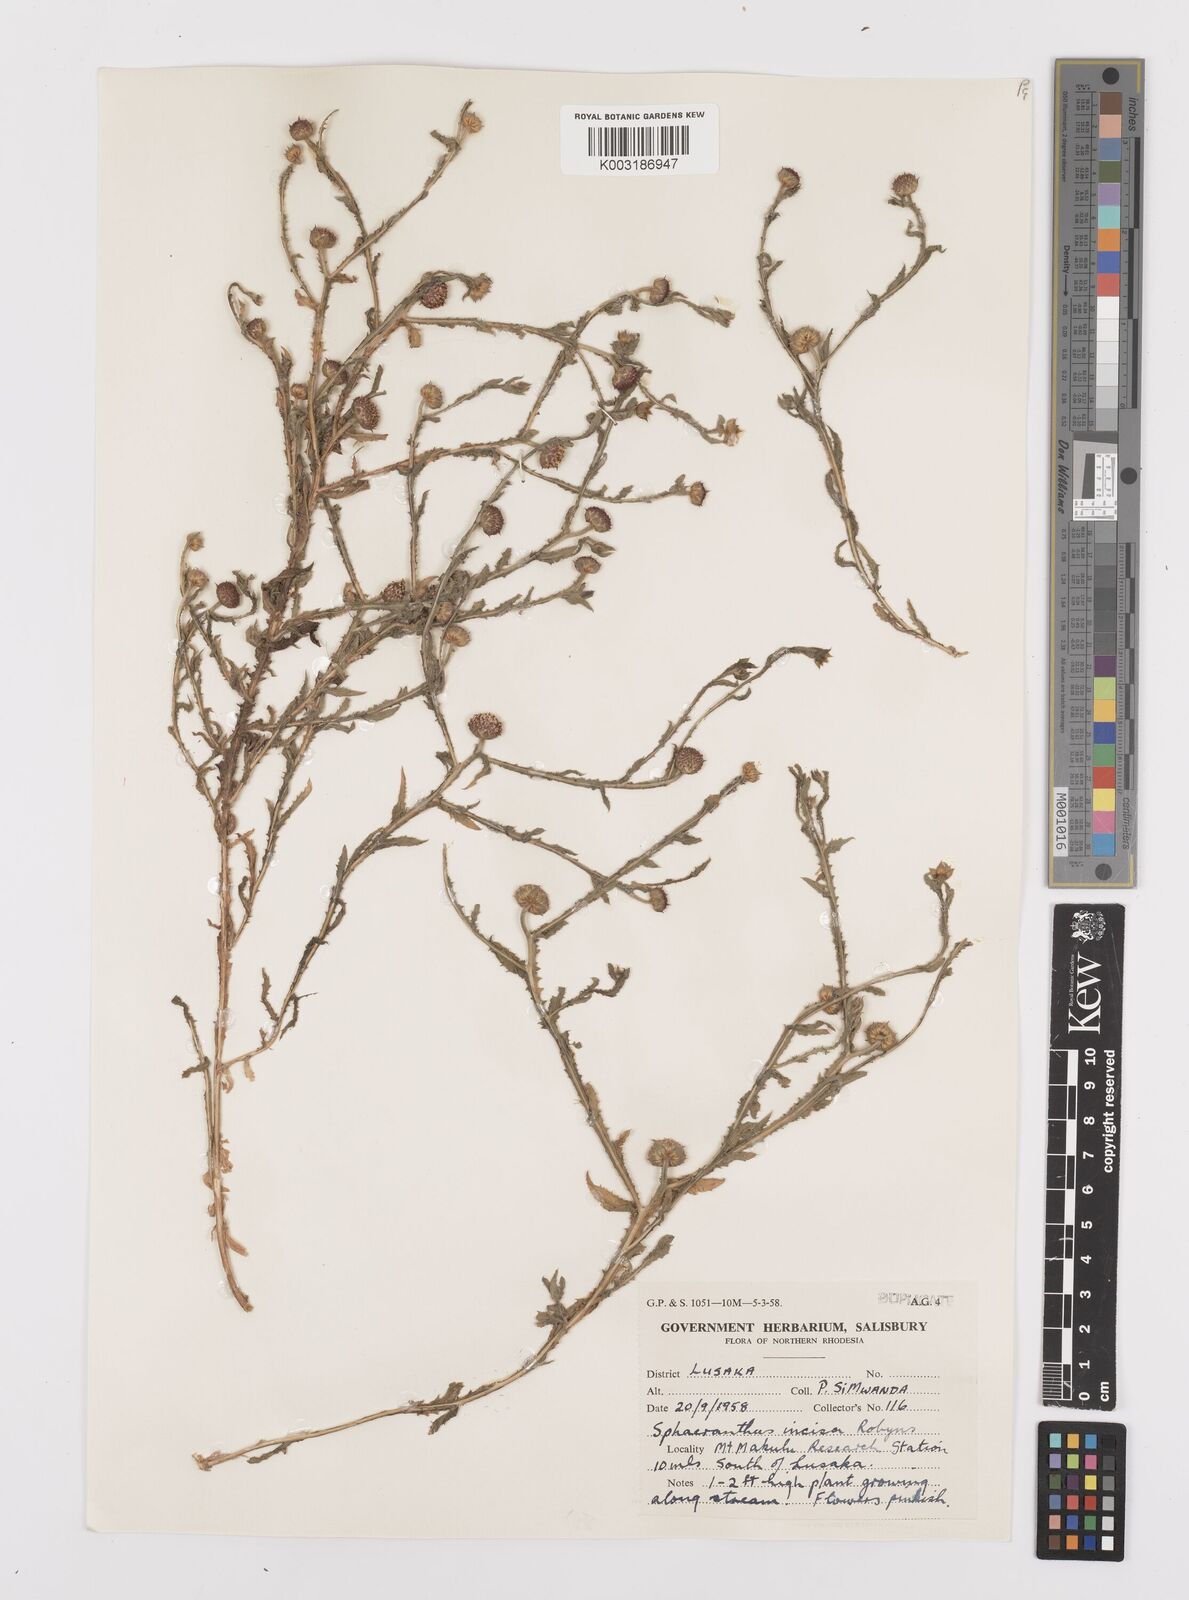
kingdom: Plantae
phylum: Tracheophyta
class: Magnoliopsida
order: Asterales
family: Asteraceae
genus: Sphaeranthus
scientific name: Sphaeranthus peduncularis
